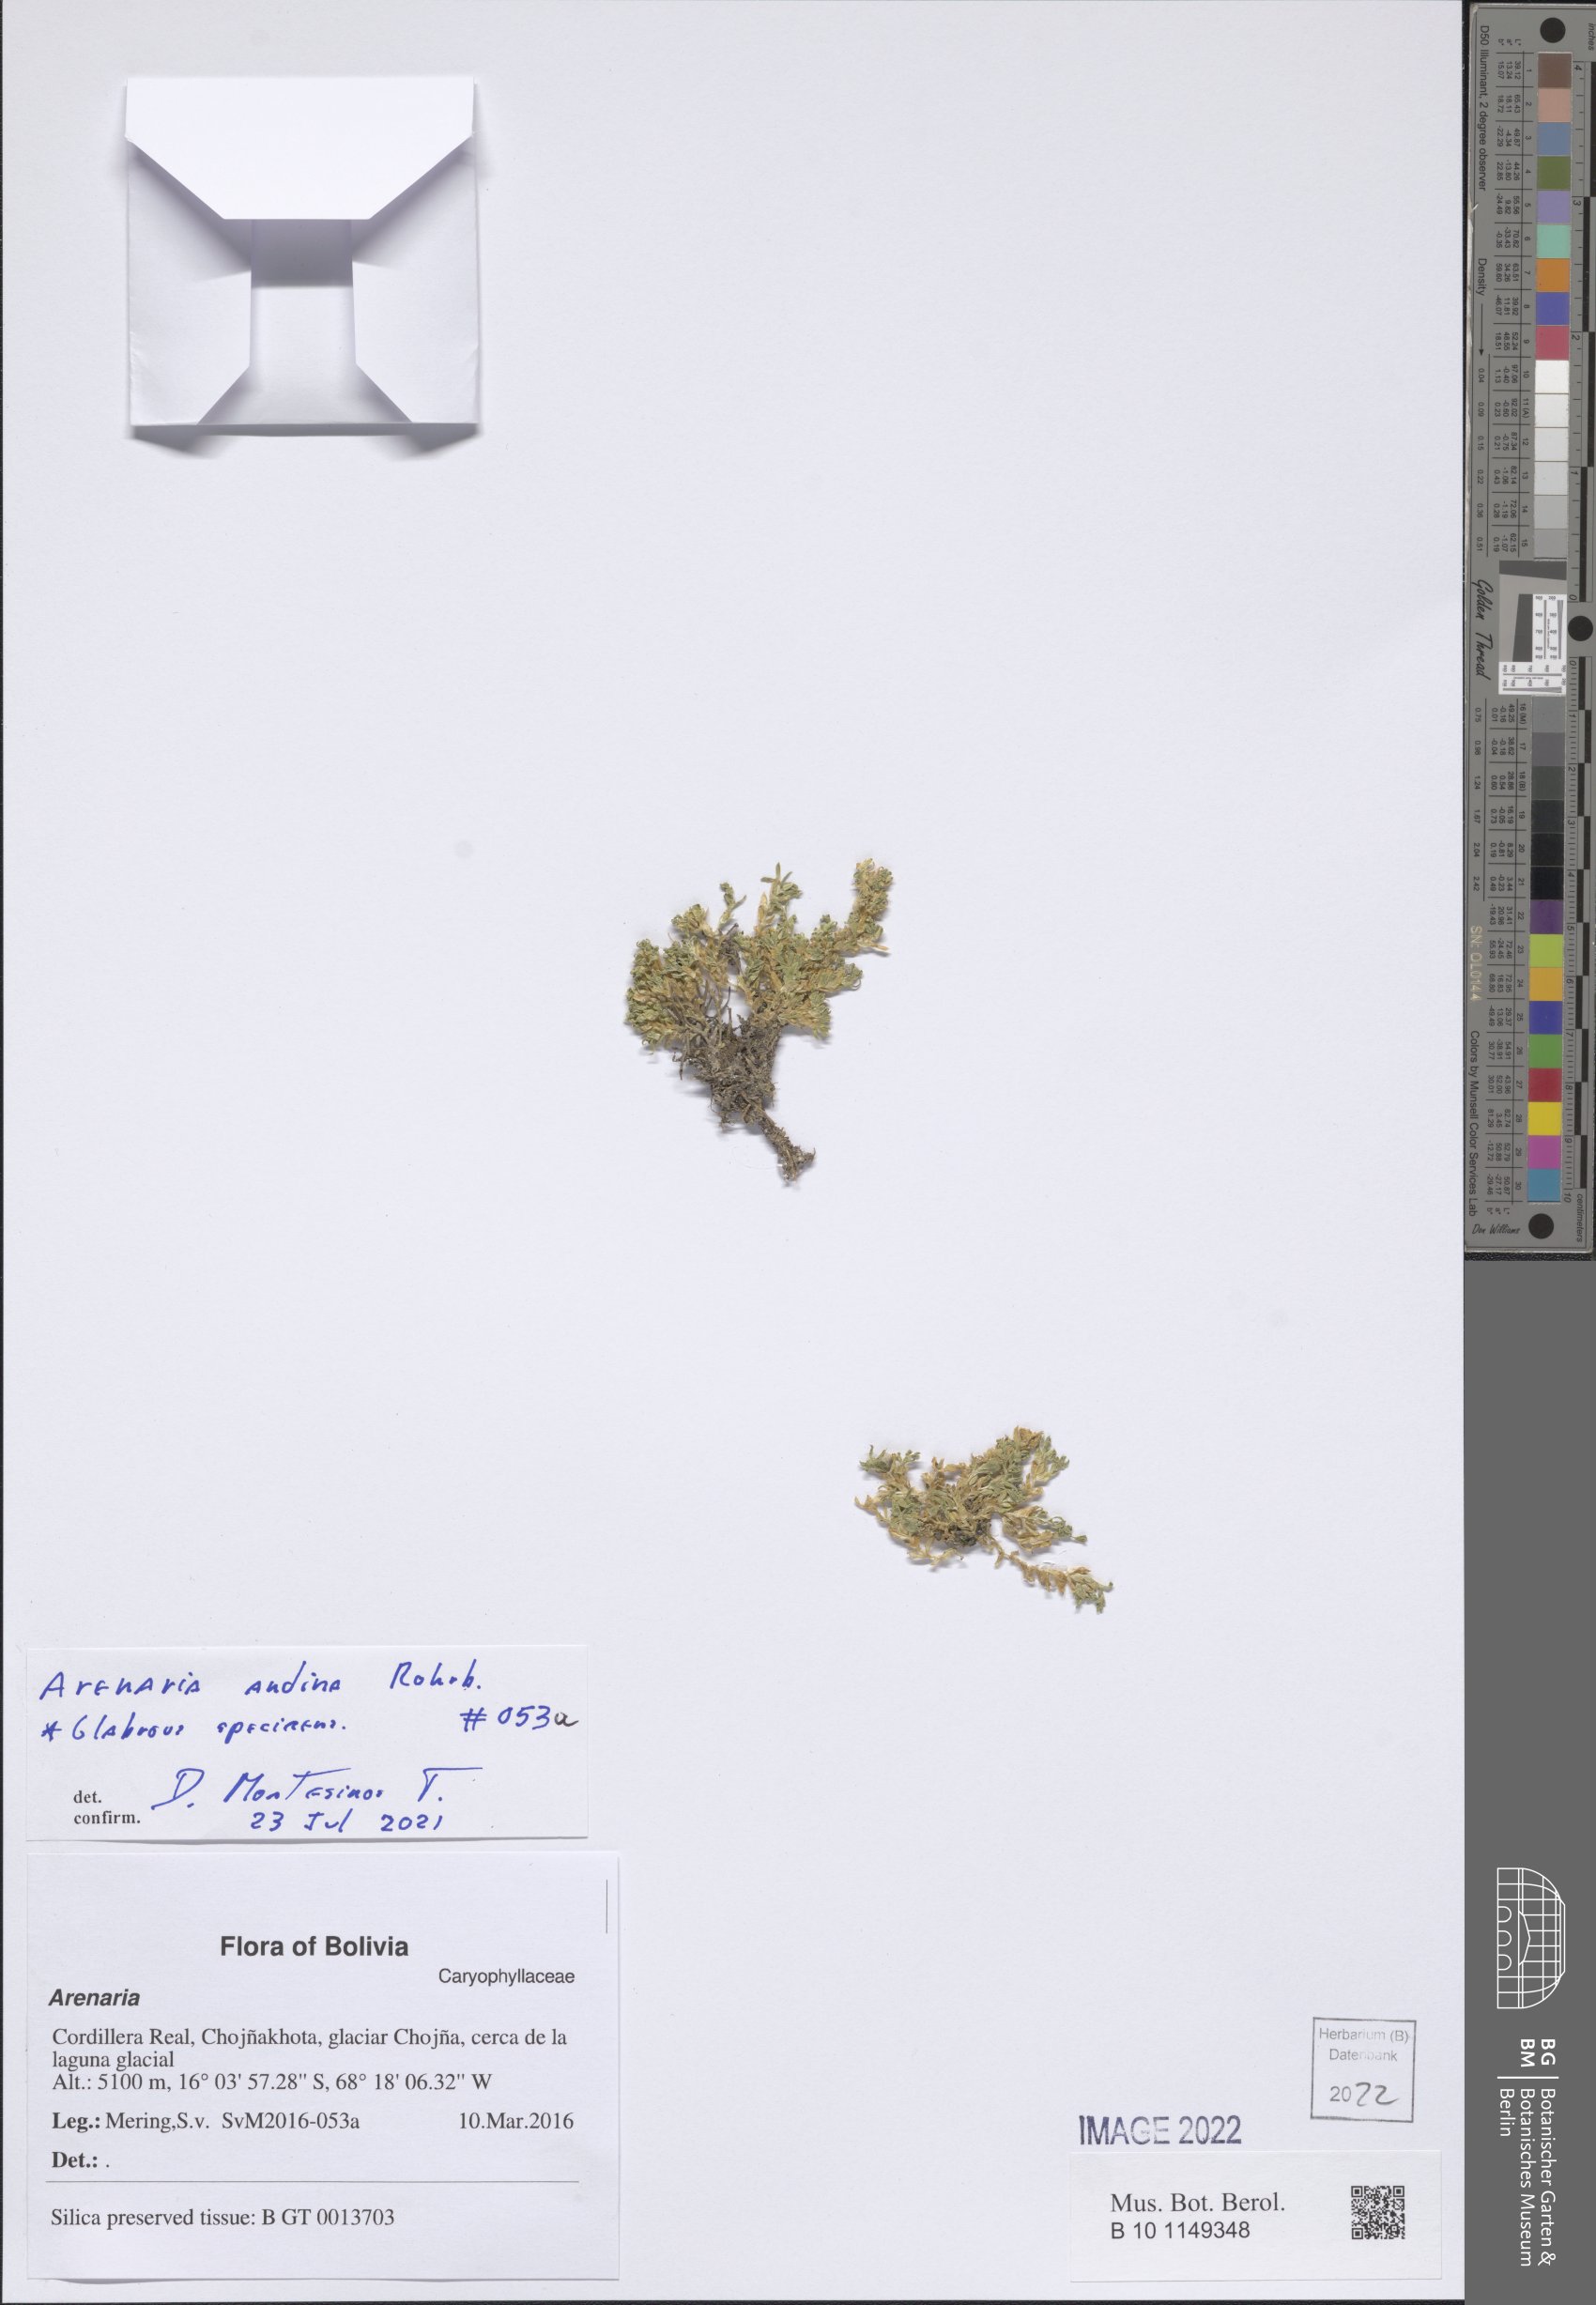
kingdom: Plantae
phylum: Tracheophyta
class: Magnoliopsida
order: Caryophyllales
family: Caryophyllaceae
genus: Arenaria
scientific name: Arenaria andina
